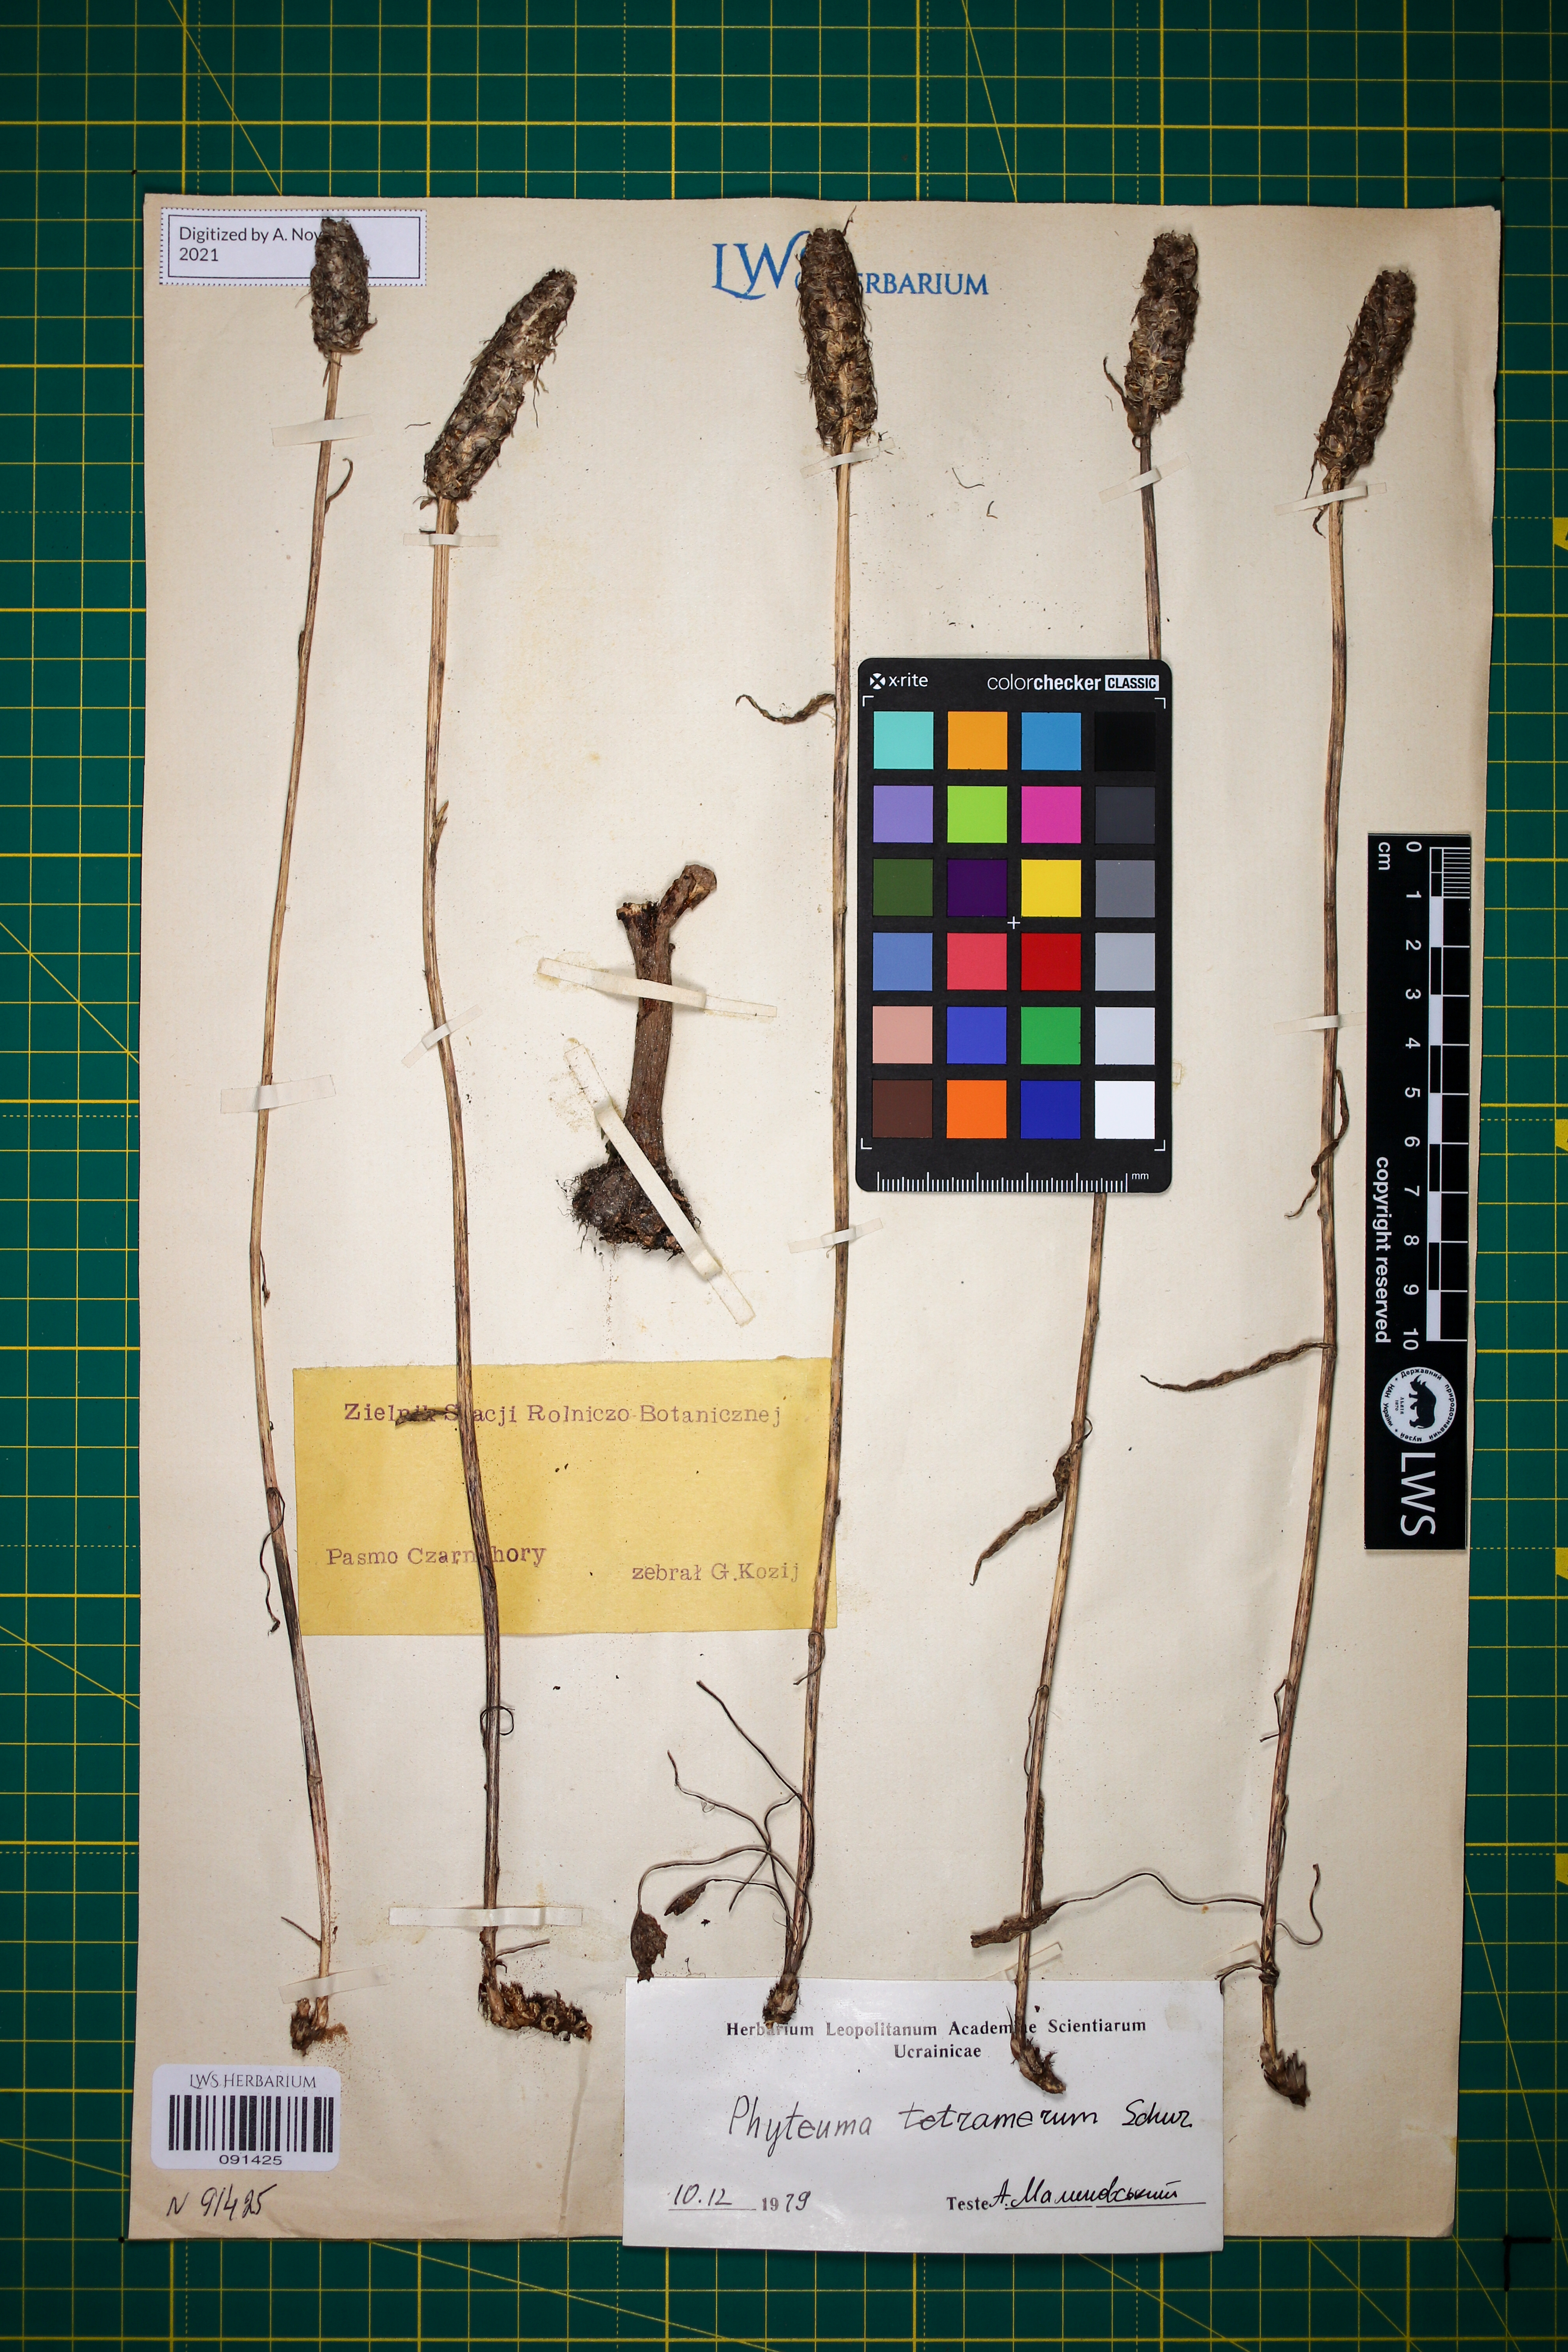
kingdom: Plantae
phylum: Tracheophyta
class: Magnoliopsida
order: Asterales
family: Campanulaceae
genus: Phyteuma
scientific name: Phyteuma tetramerum
